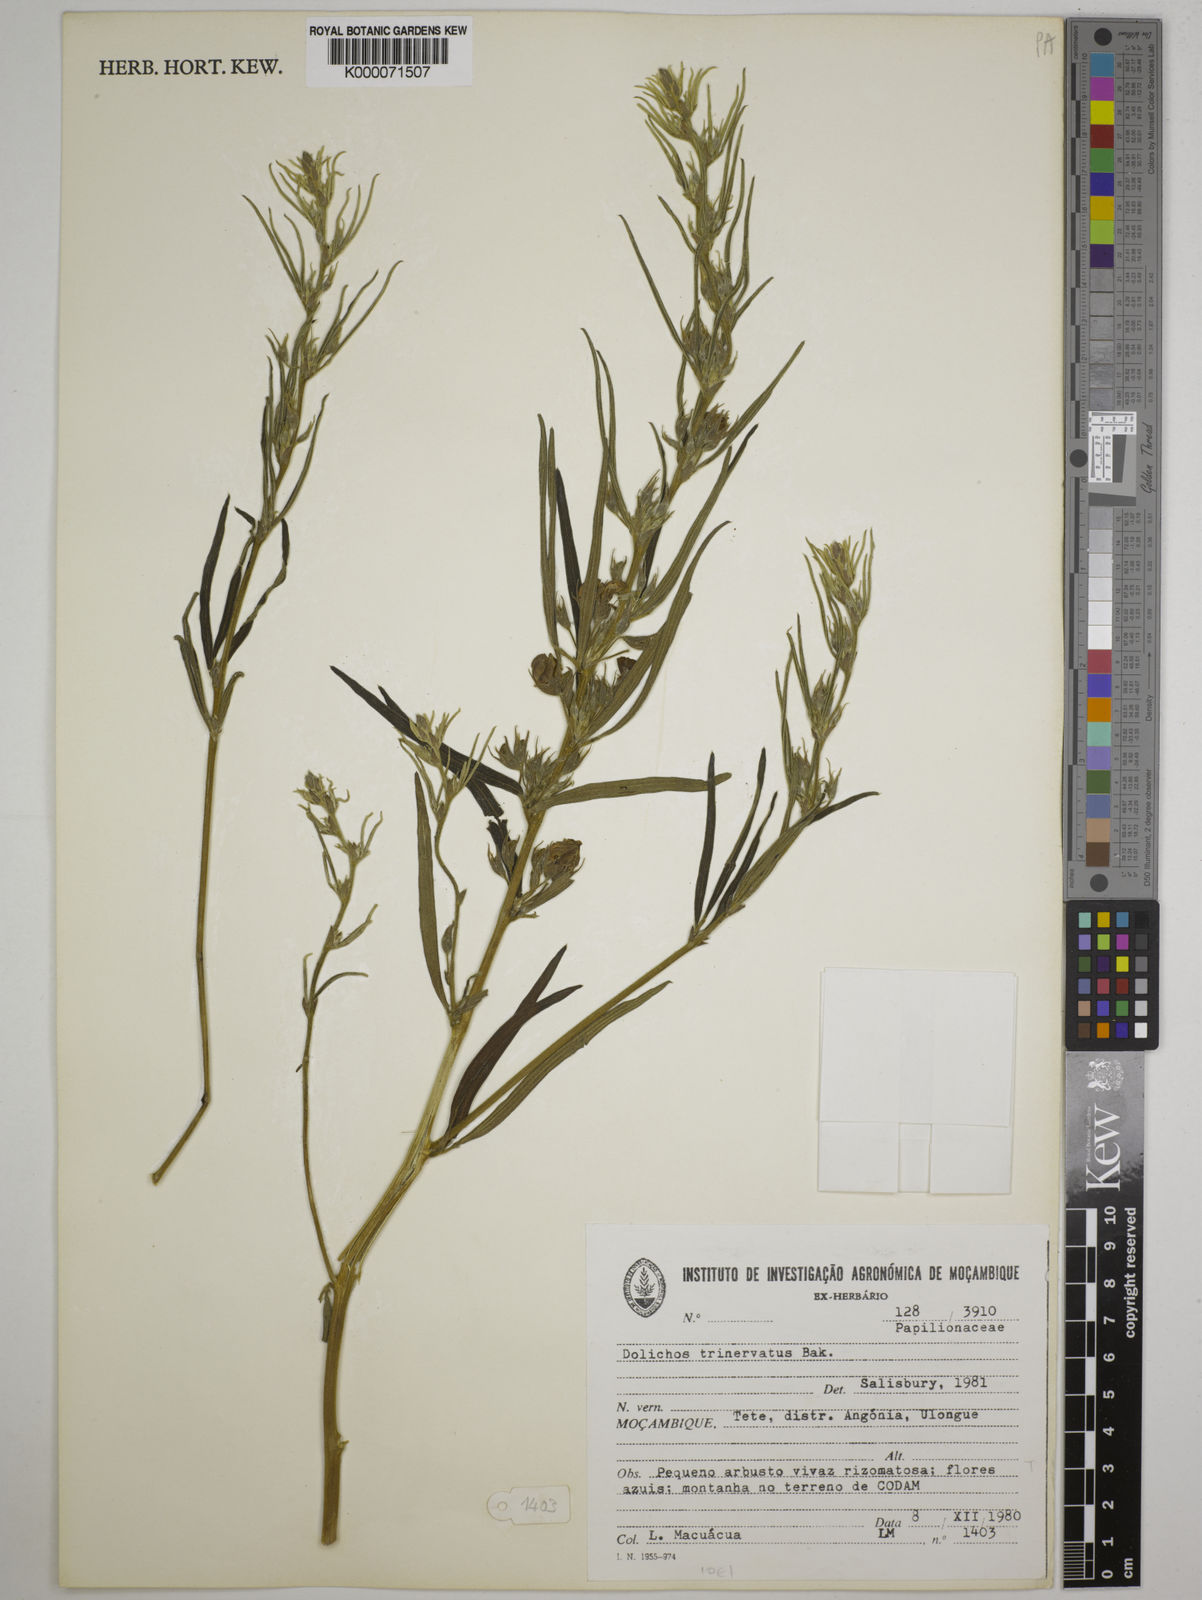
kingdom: Plantae
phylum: Tracheophyta
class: Magnoliopsida
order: Fabales
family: Fabaceae
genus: Dolichos
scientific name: Dolichos trinervatus
